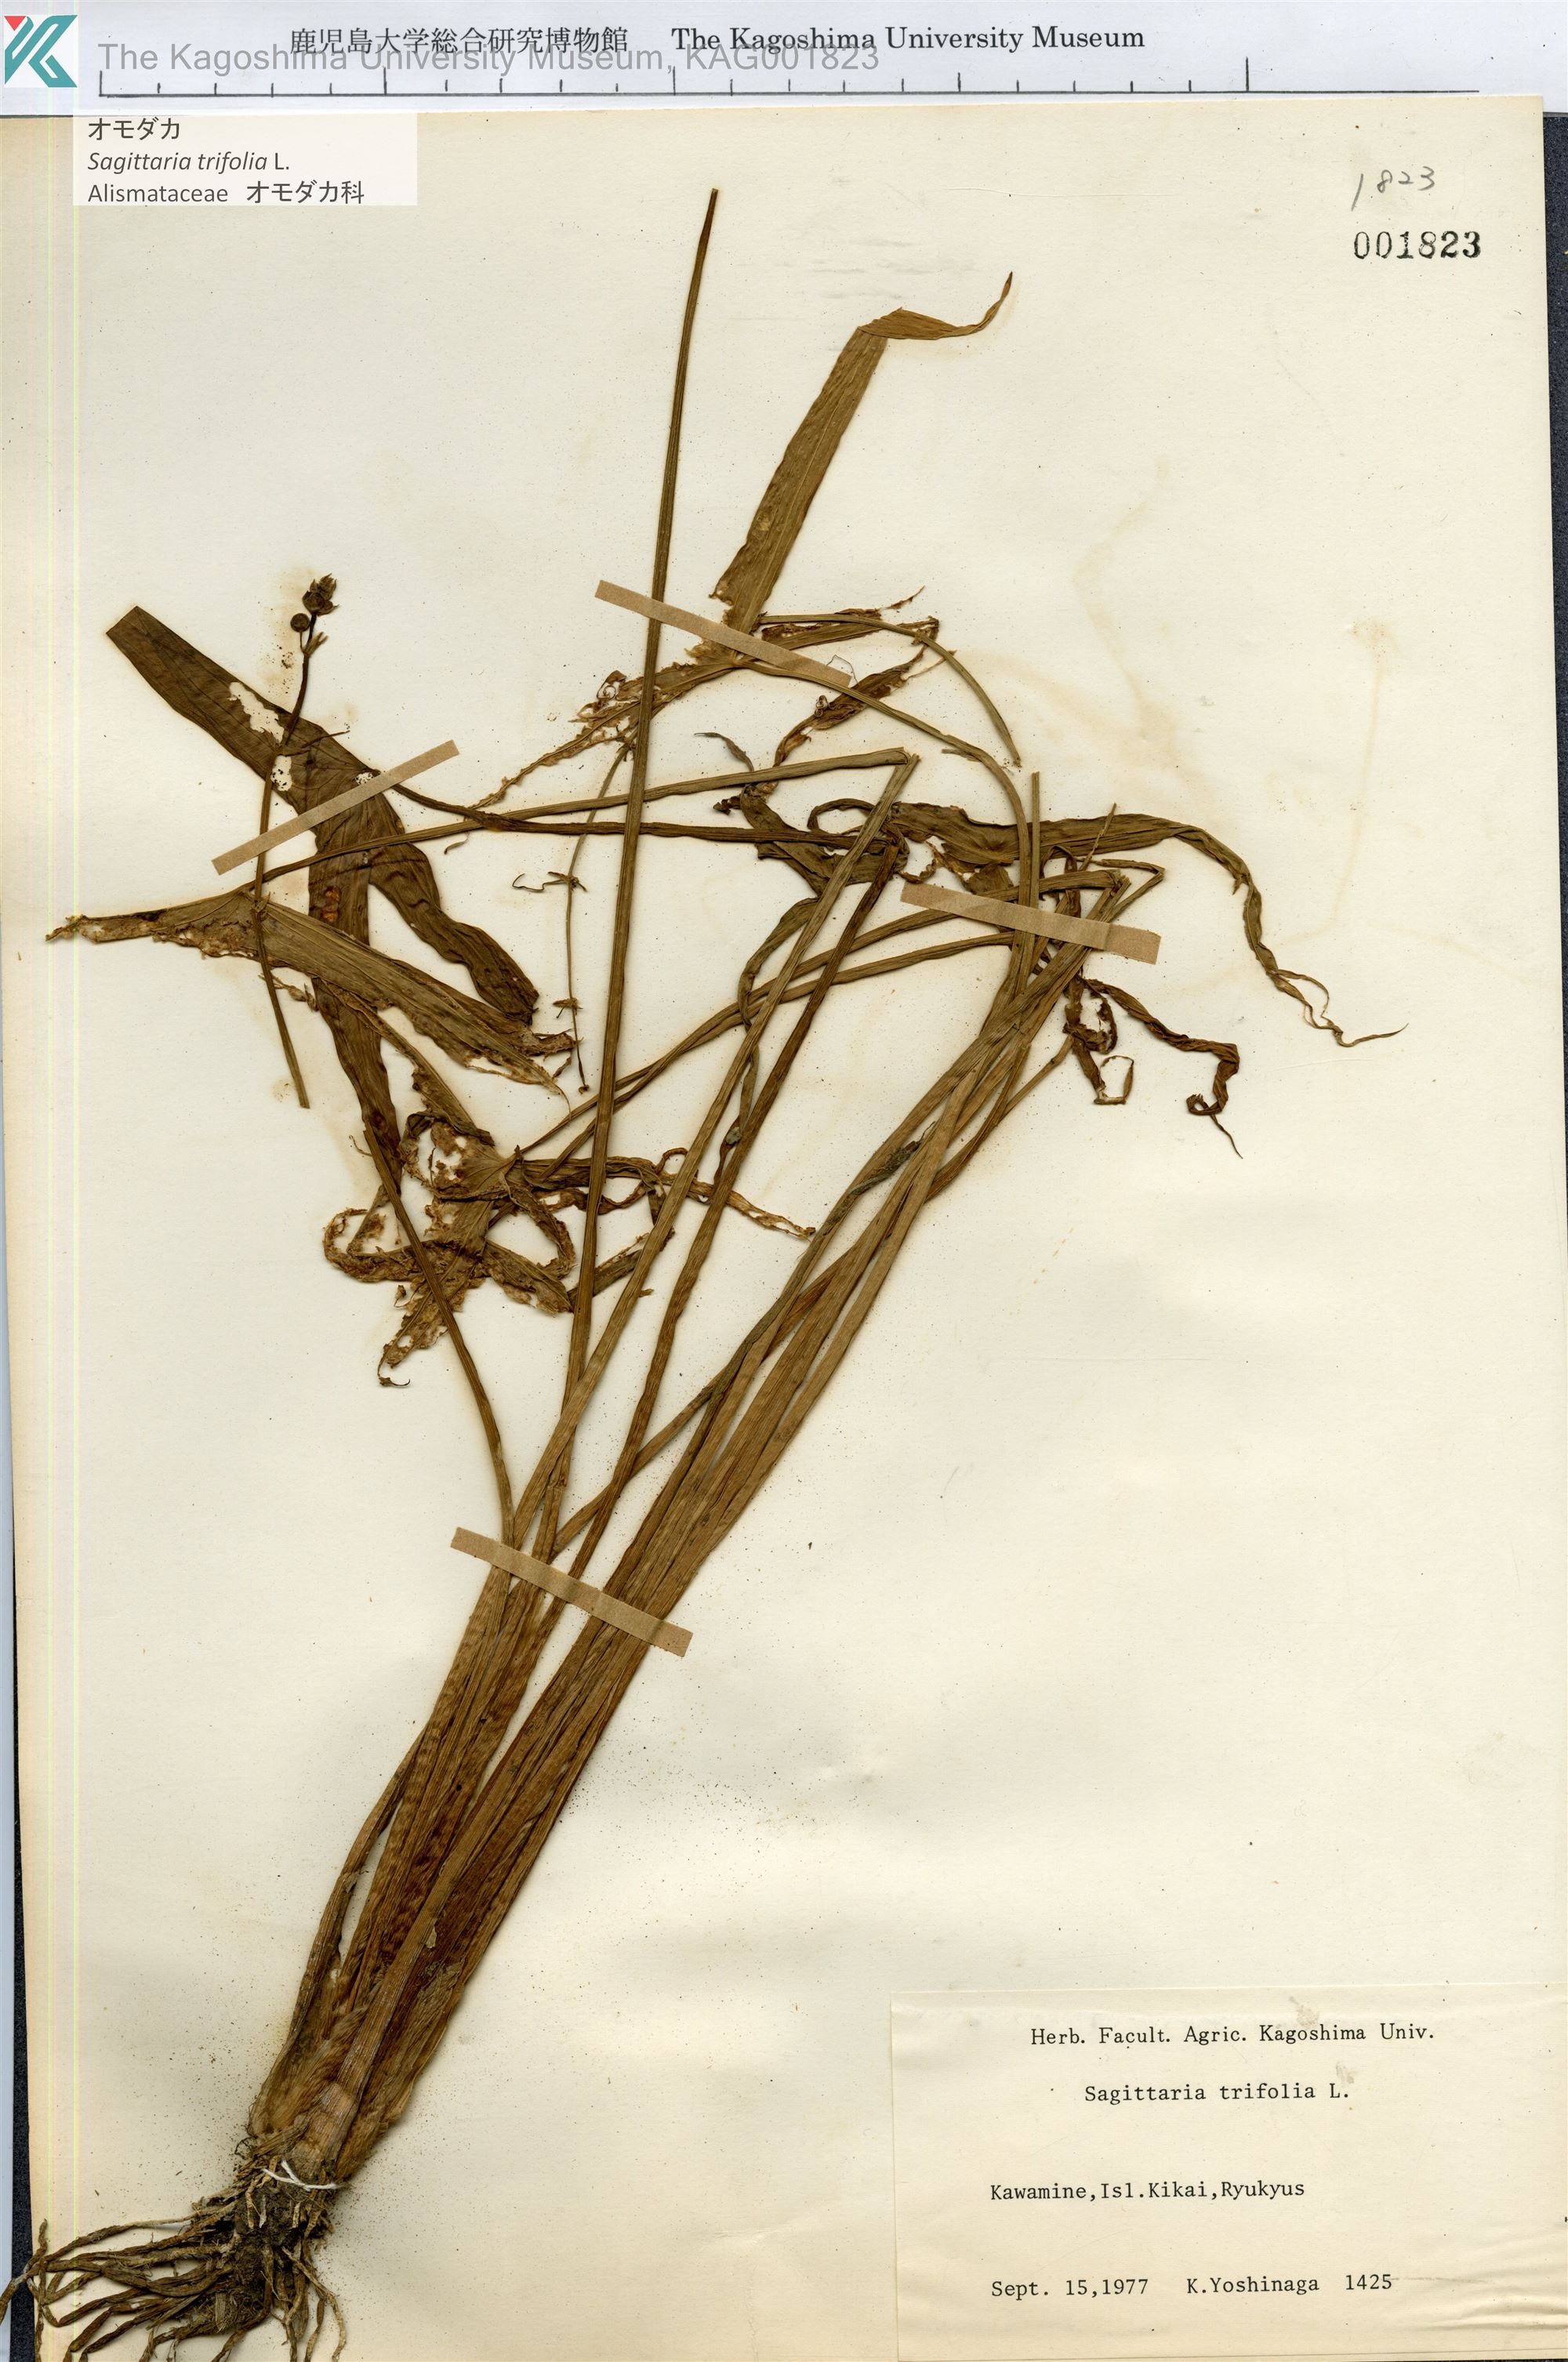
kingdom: Plantae
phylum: Tracheophyta
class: Liliopsida
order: Alismatales
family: Alismataceae
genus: Sagittaria
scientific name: Sagittaria trifolia
